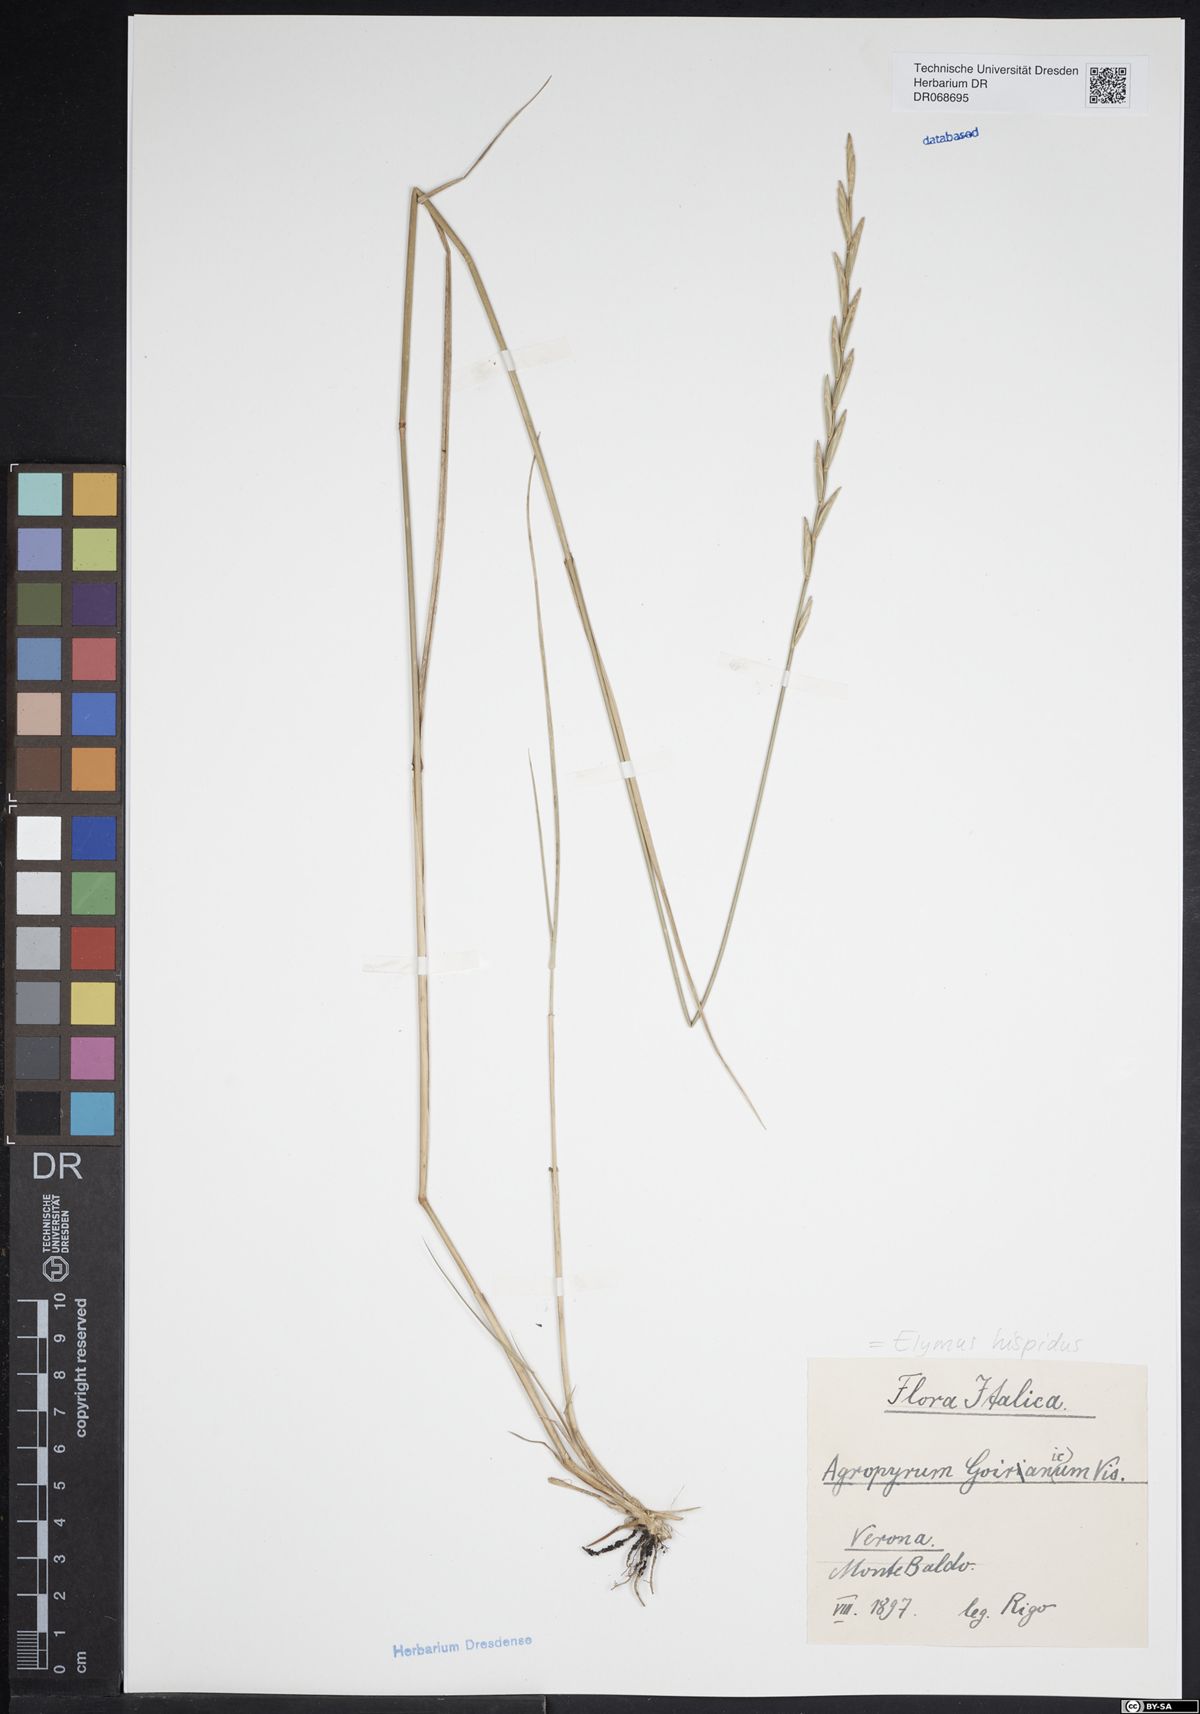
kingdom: Plantae
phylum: Tracheophyta
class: Liliopsida
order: Poales
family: Poaceae
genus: Thinopyrum
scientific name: Thinopyrum intermedium
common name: Intermediate wheatgrass
